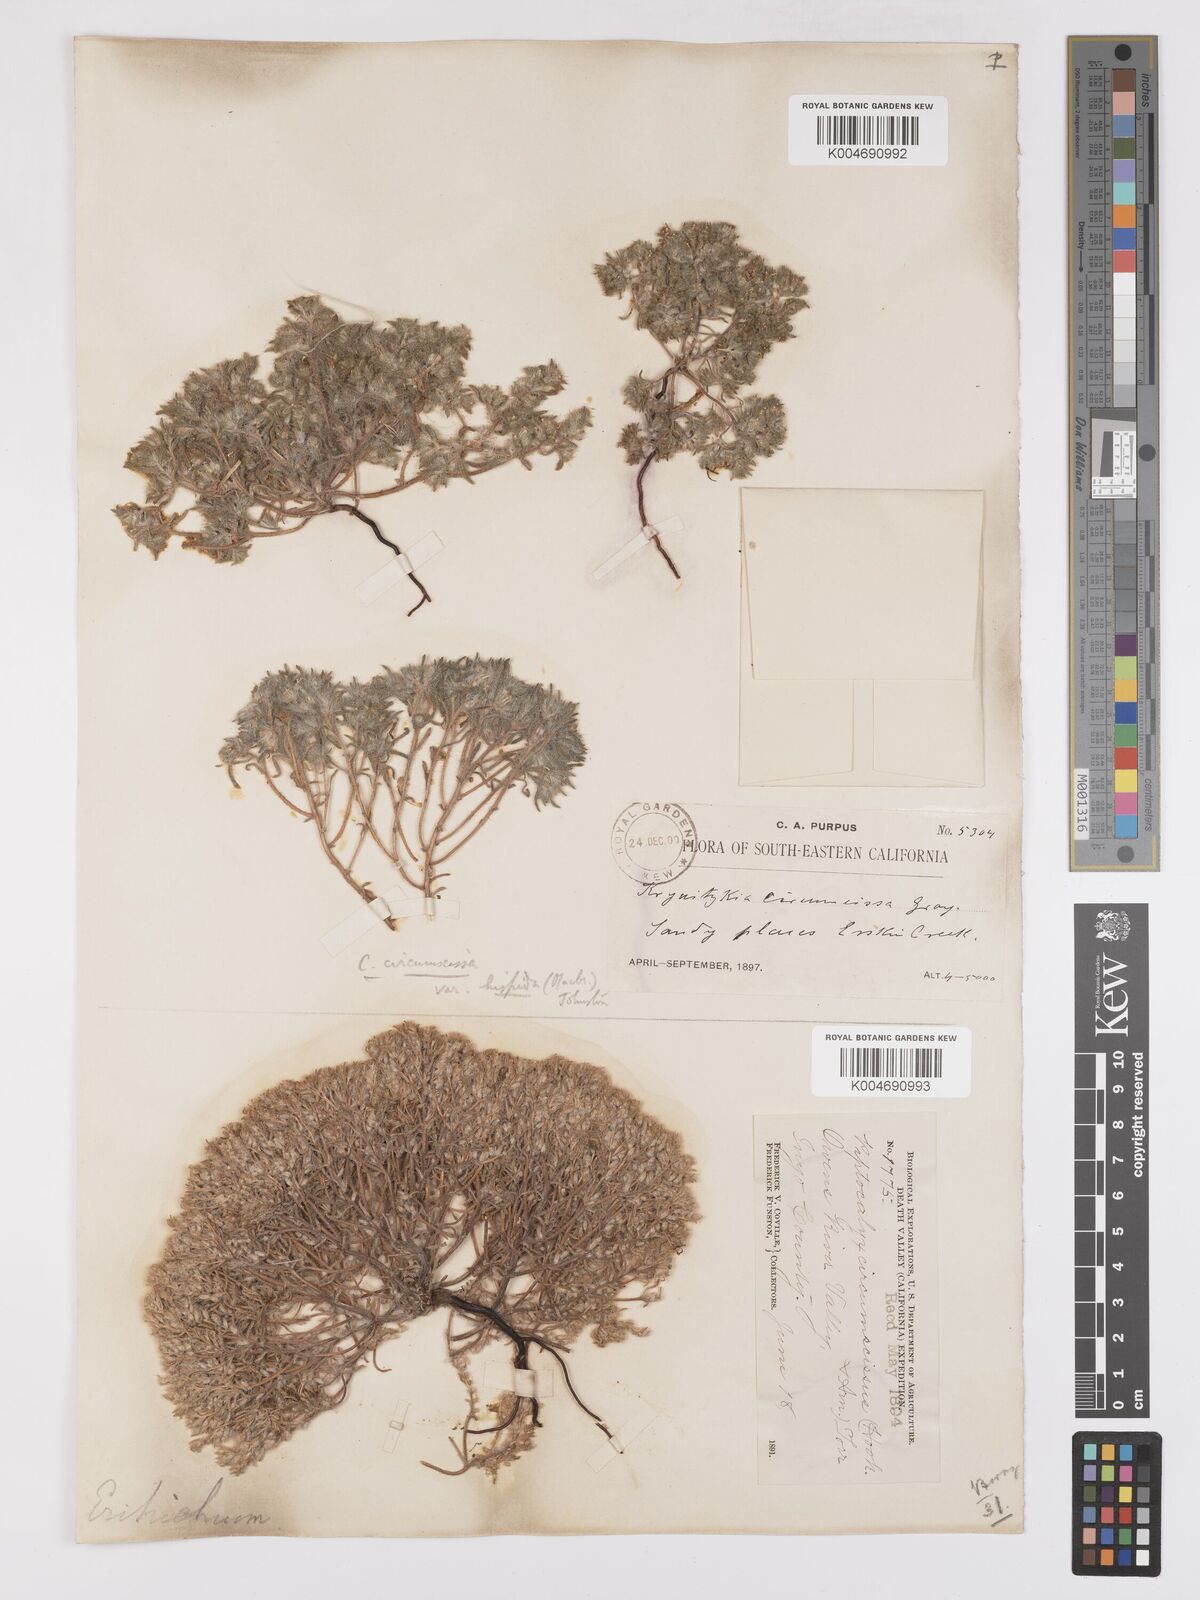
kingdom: Plantae
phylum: Tracheophyta
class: Magnoliopsida
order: Boraginales
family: Boraginaceae
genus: Greeneocharis
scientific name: Greeneocharis circumscissa
